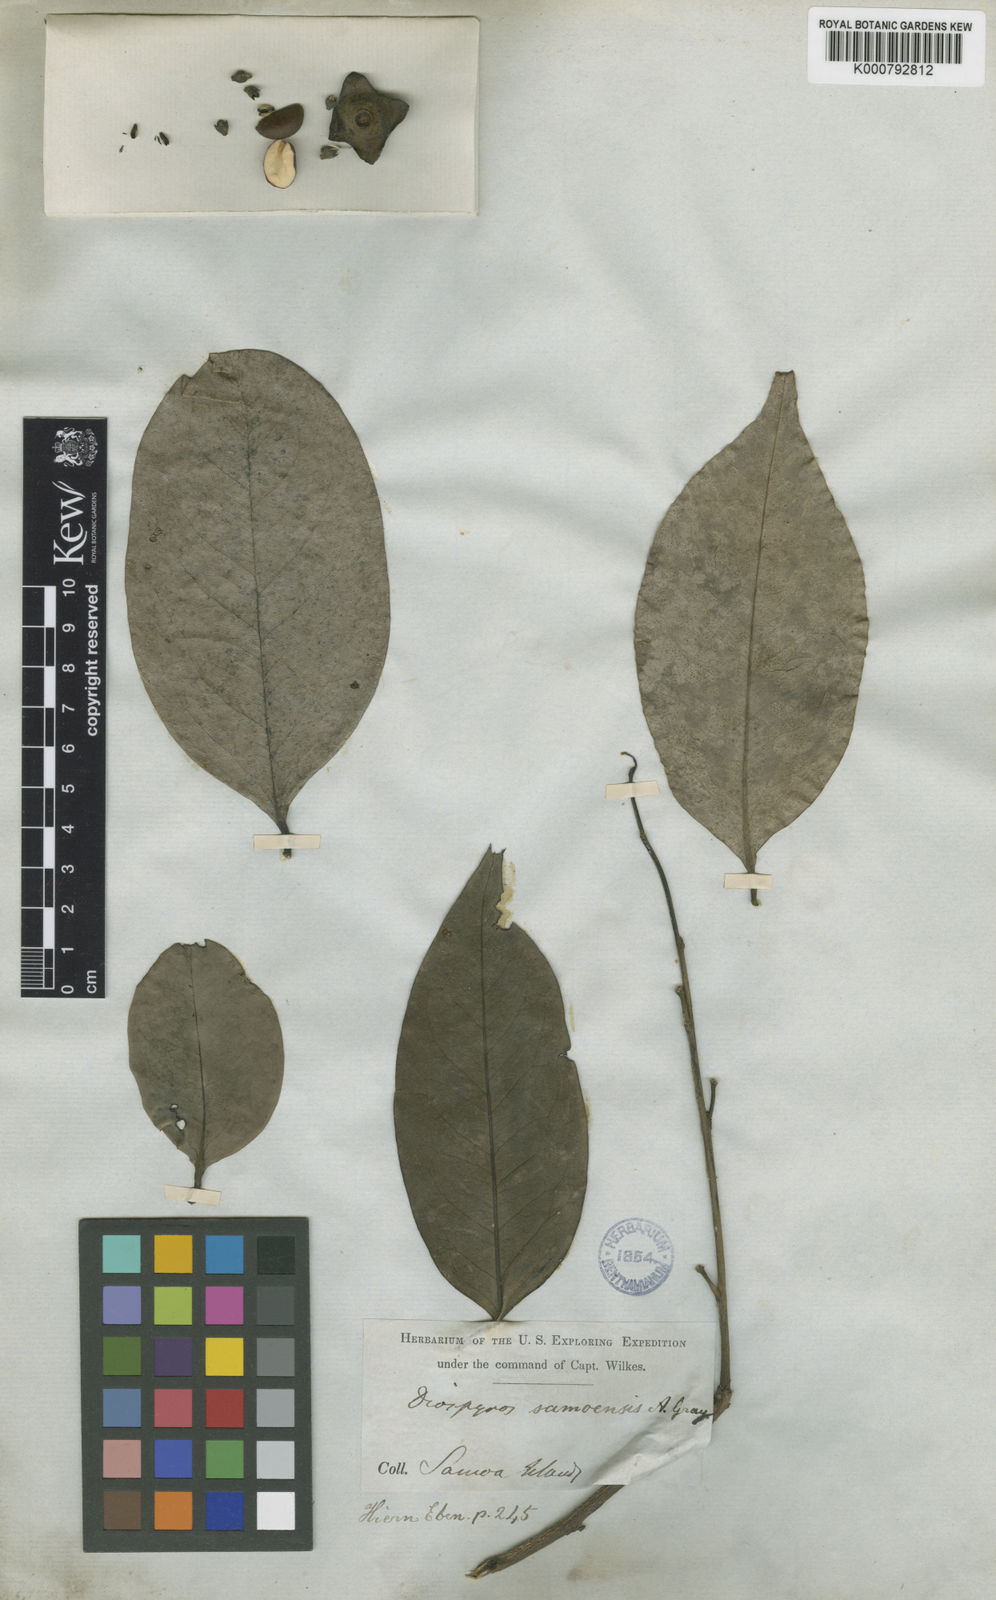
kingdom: Plantae
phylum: Tracheophyta
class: Magnoliopsida
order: Ericales
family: Ebenaceae
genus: Diospyros
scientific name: Diospyros samoensis
